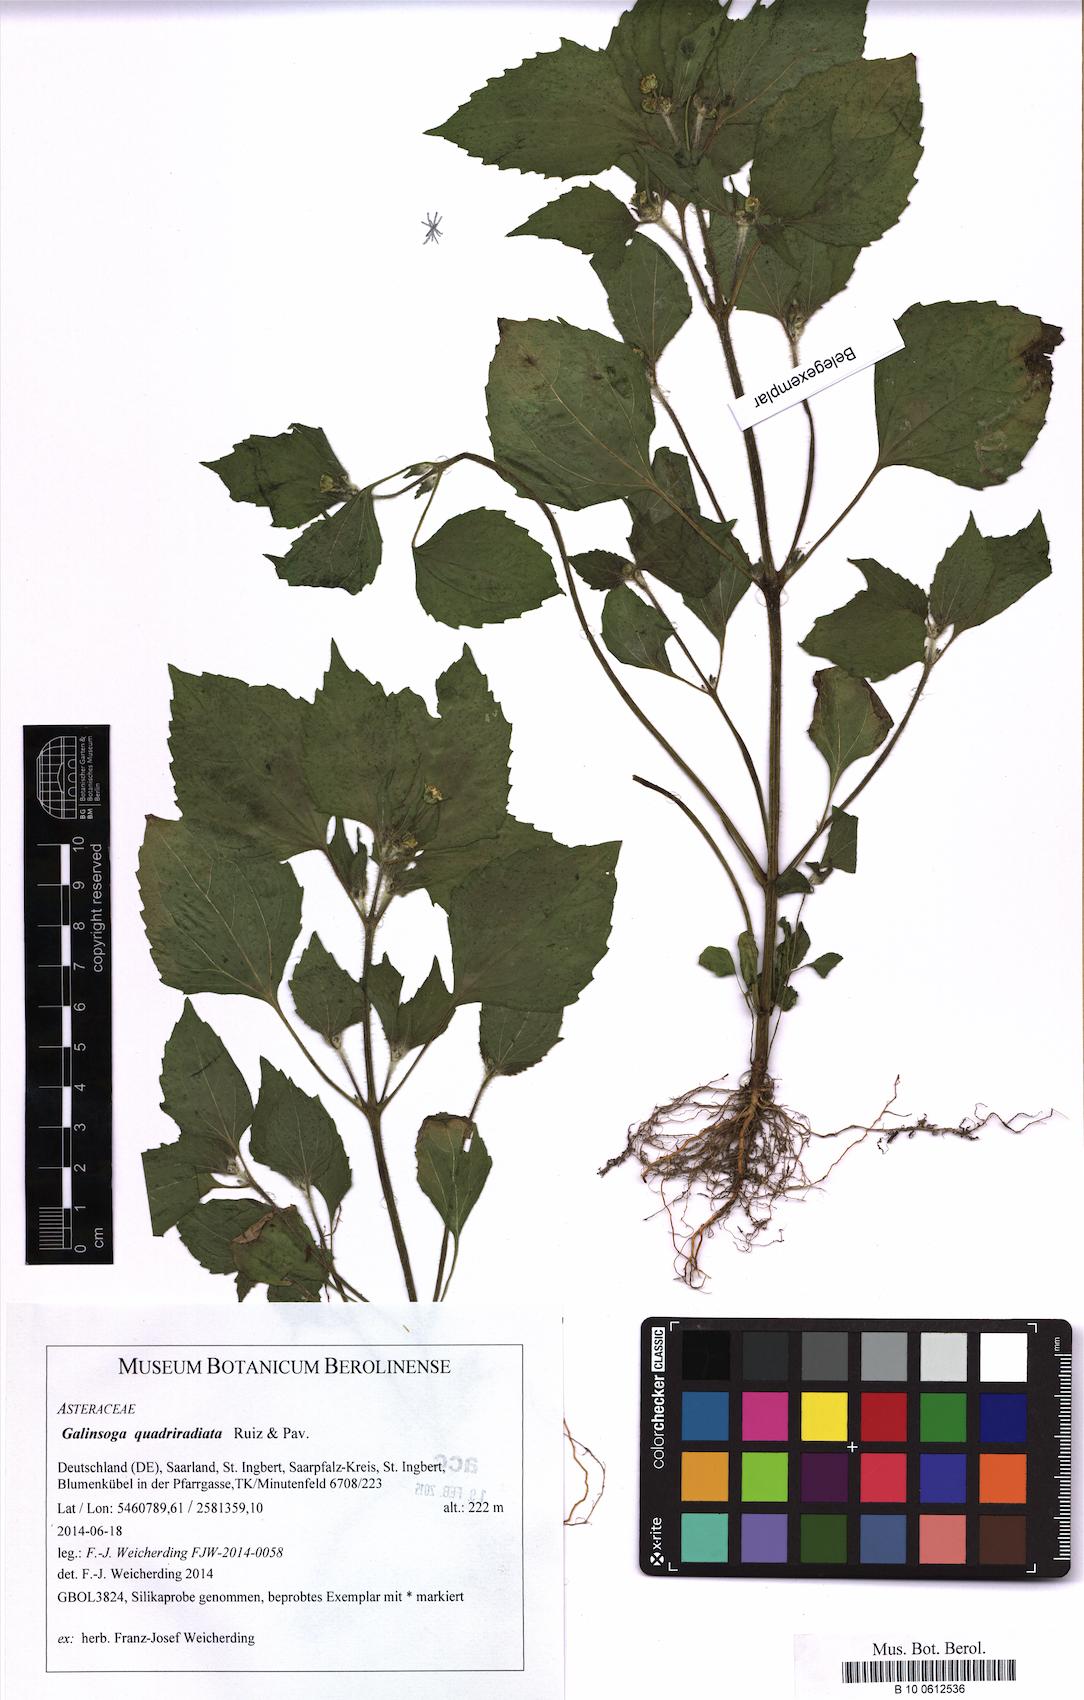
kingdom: Plantae
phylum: Tracheophyta
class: Magnoliopsida
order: Asterales
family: Asteraceae
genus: Galinsoga
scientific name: Galinsoga quadriradiata
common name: Shaggy soldier
